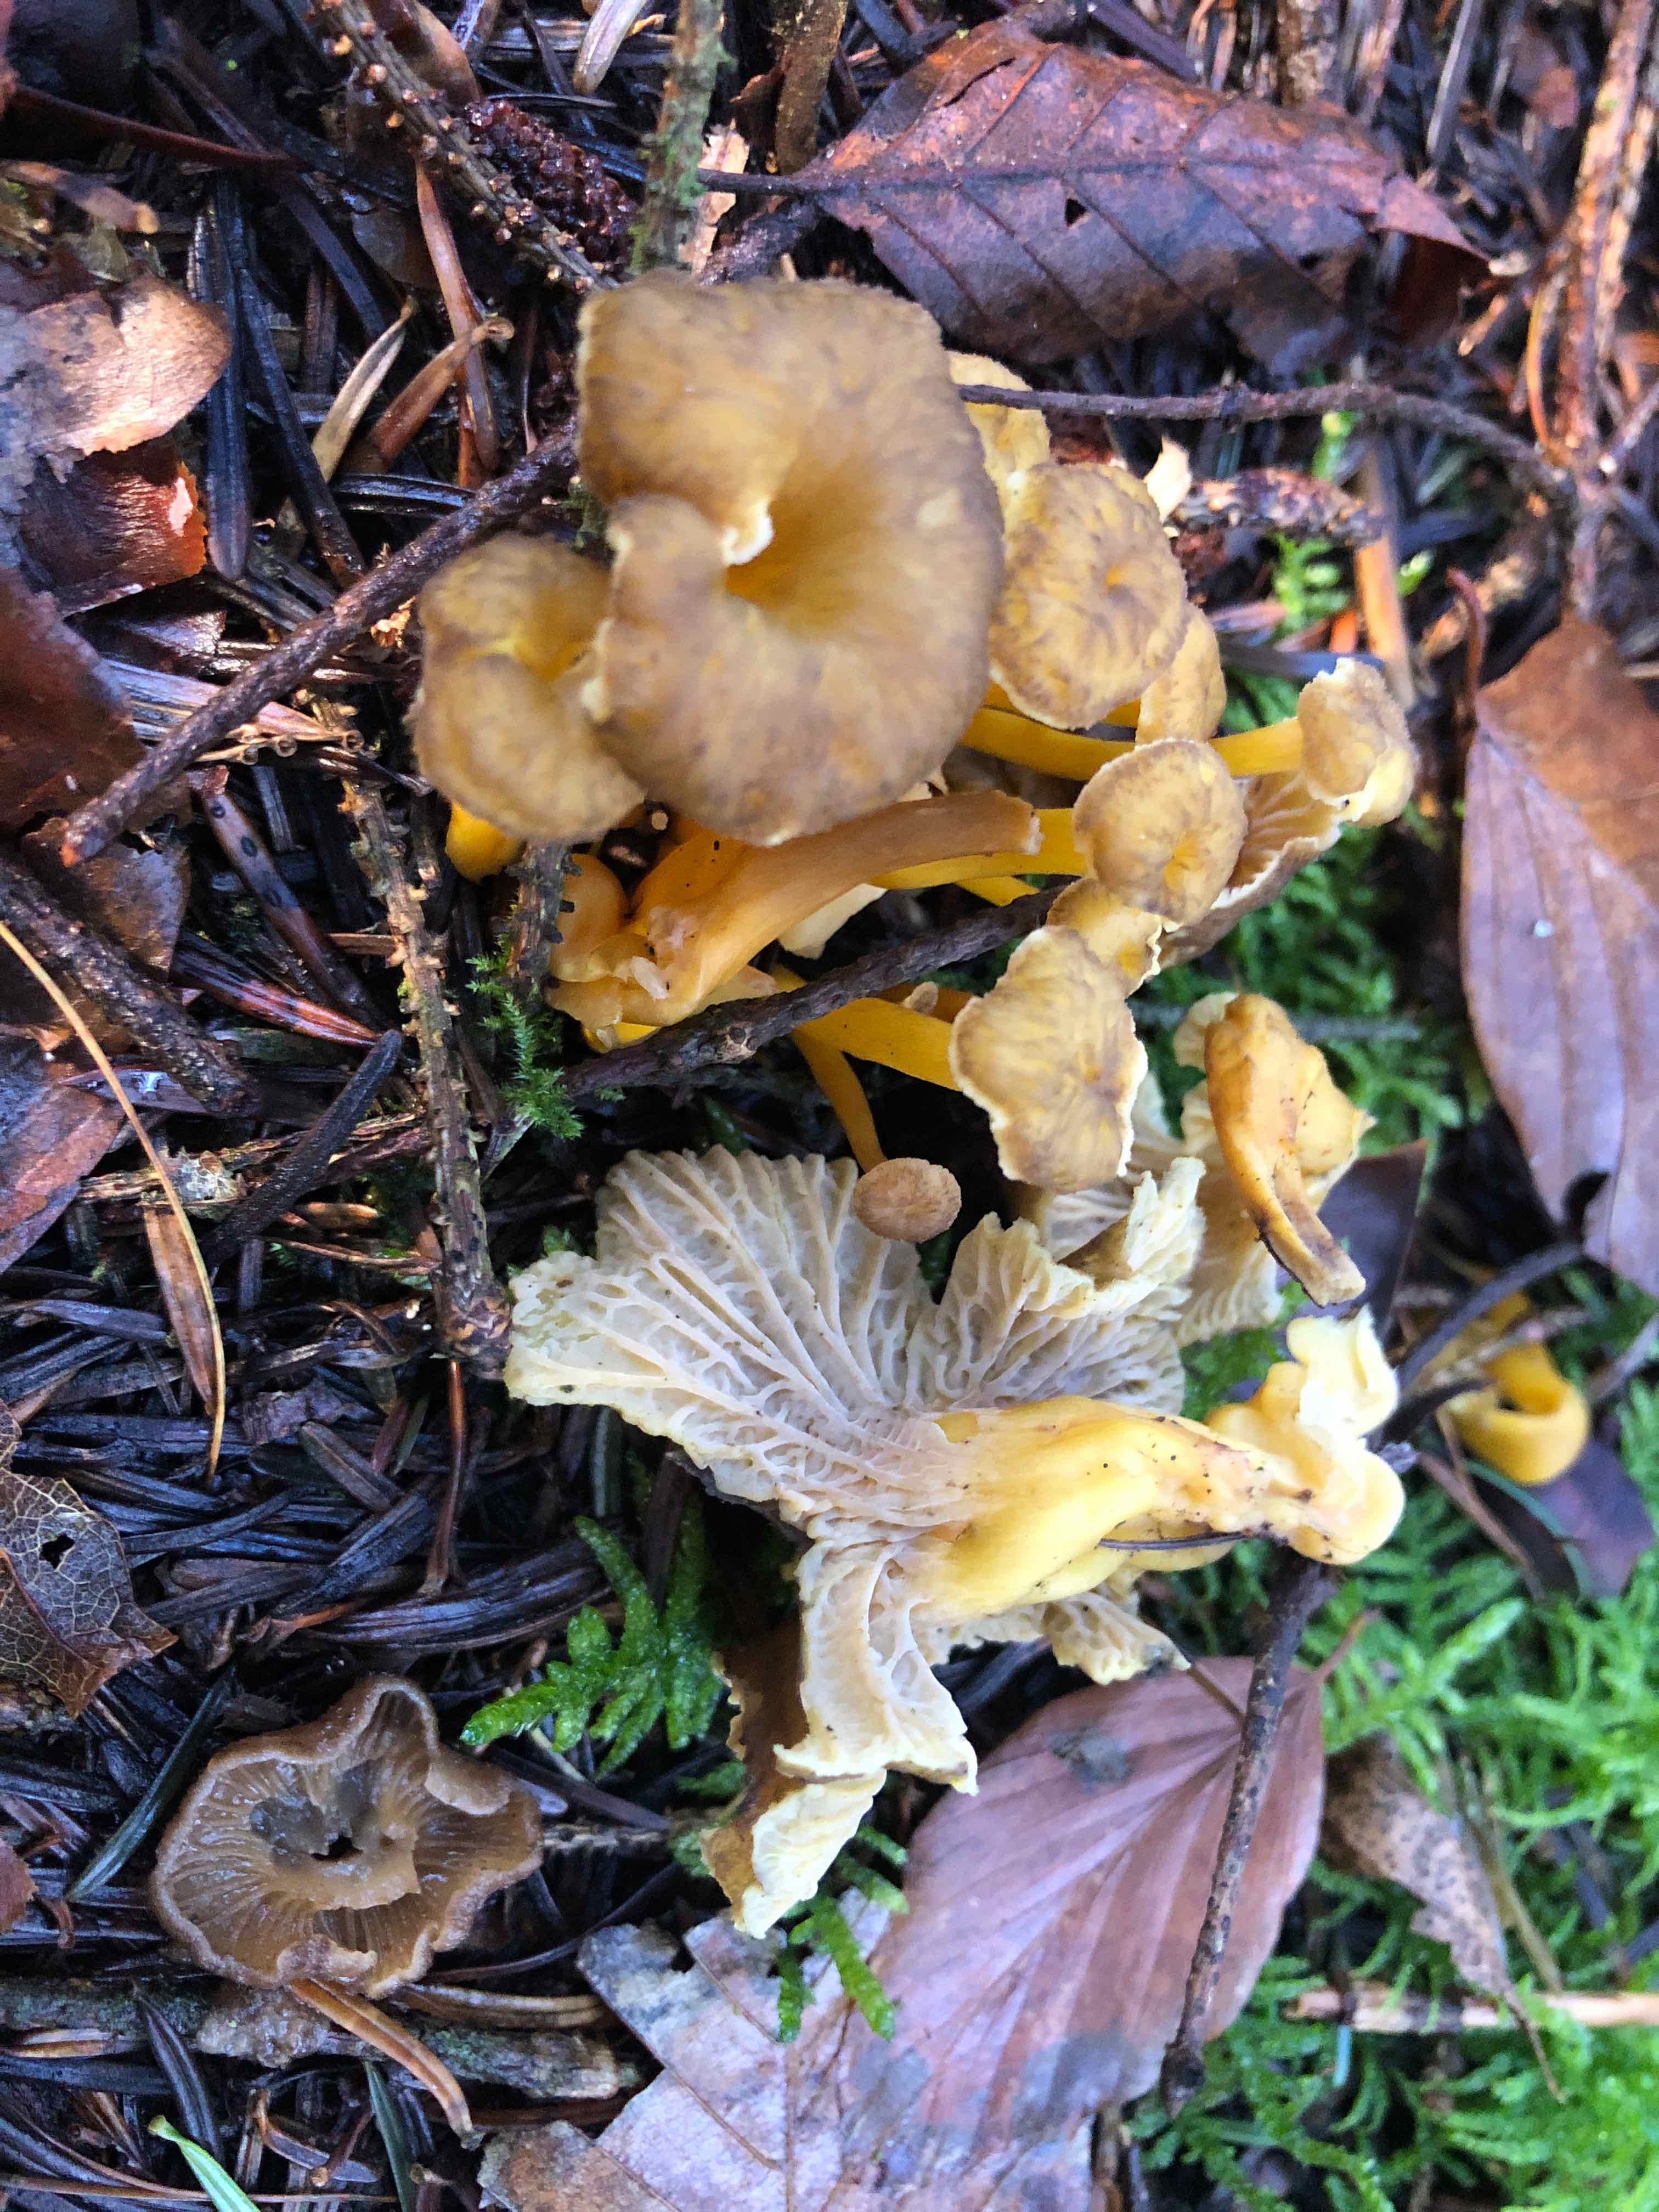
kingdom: Fungi
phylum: Basidiomycota
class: Agaricomycetes
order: Cantharellales
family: Hydnaceae
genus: Craterellus
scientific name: Craterellus tubaeformis
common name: tragt-kantarel
